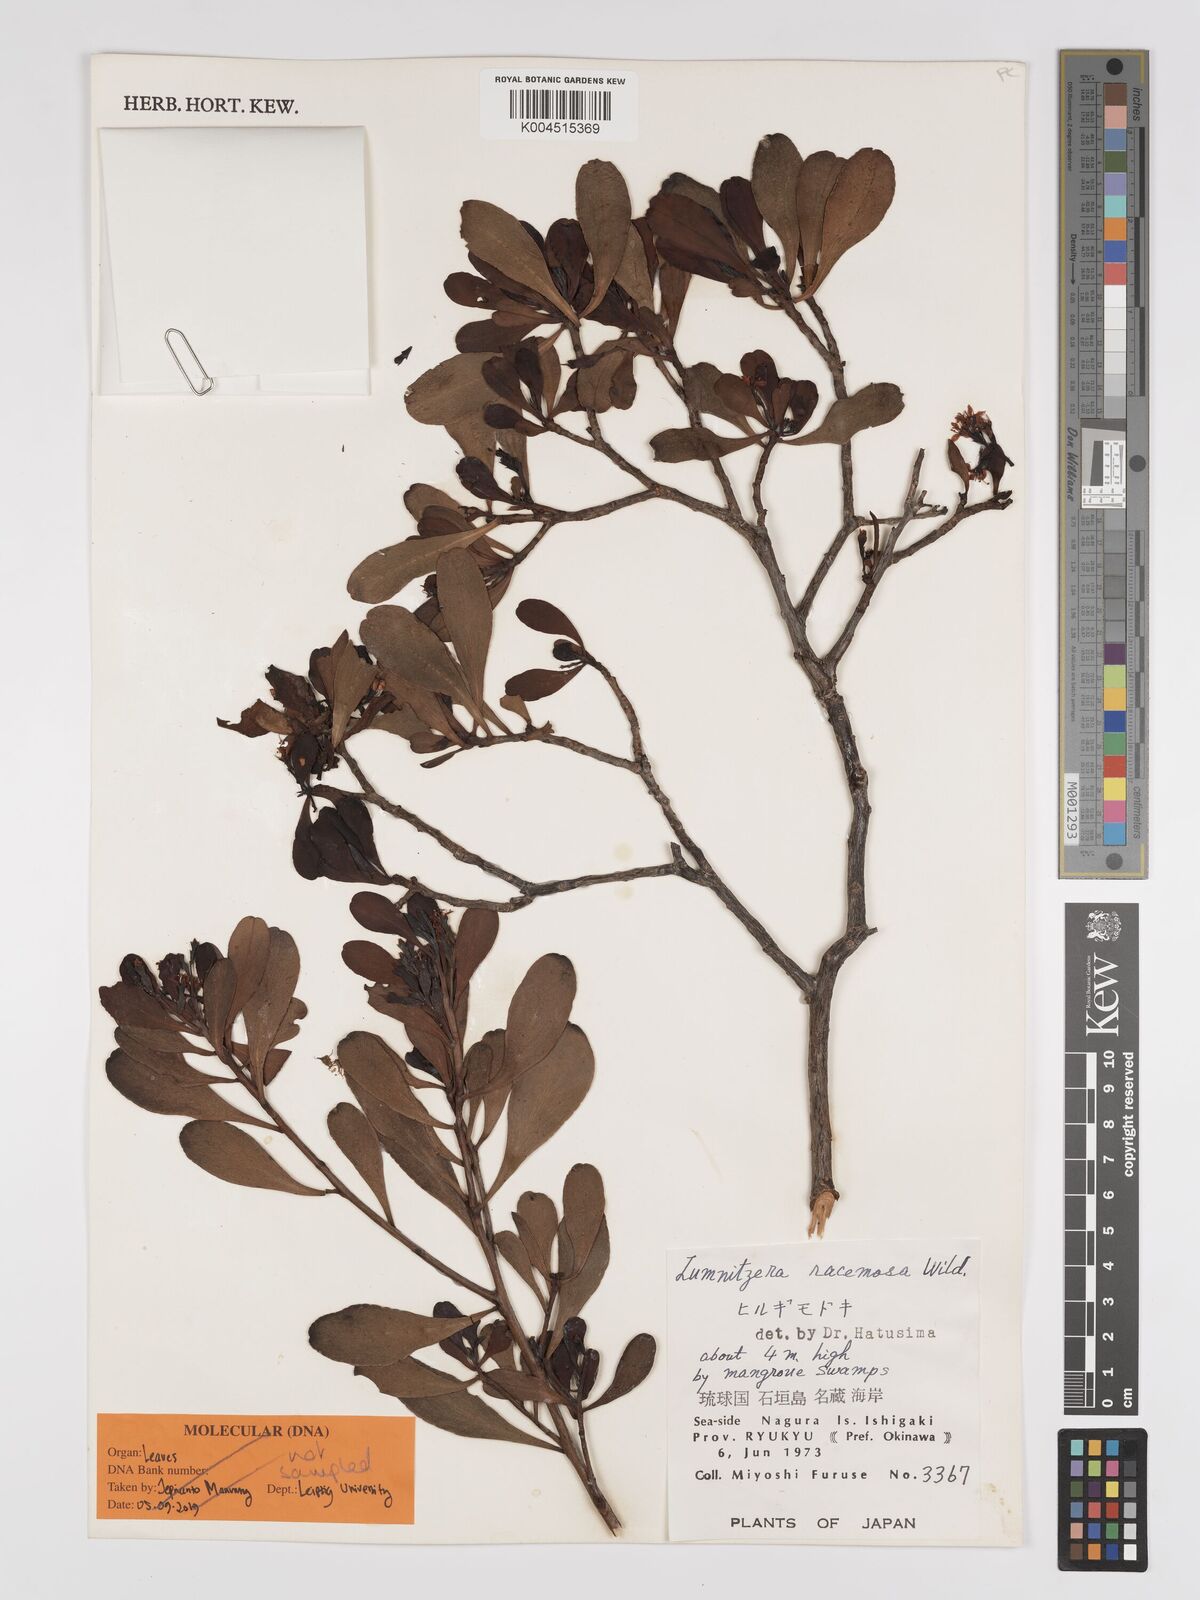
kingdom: Plantae
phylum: Tracheophyta
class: Magnoliopsida
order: Myrtales
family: Combretaceae
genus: Lumnitzera
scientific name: Lumnitzera racemosa
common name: White-flowered black mangrove
